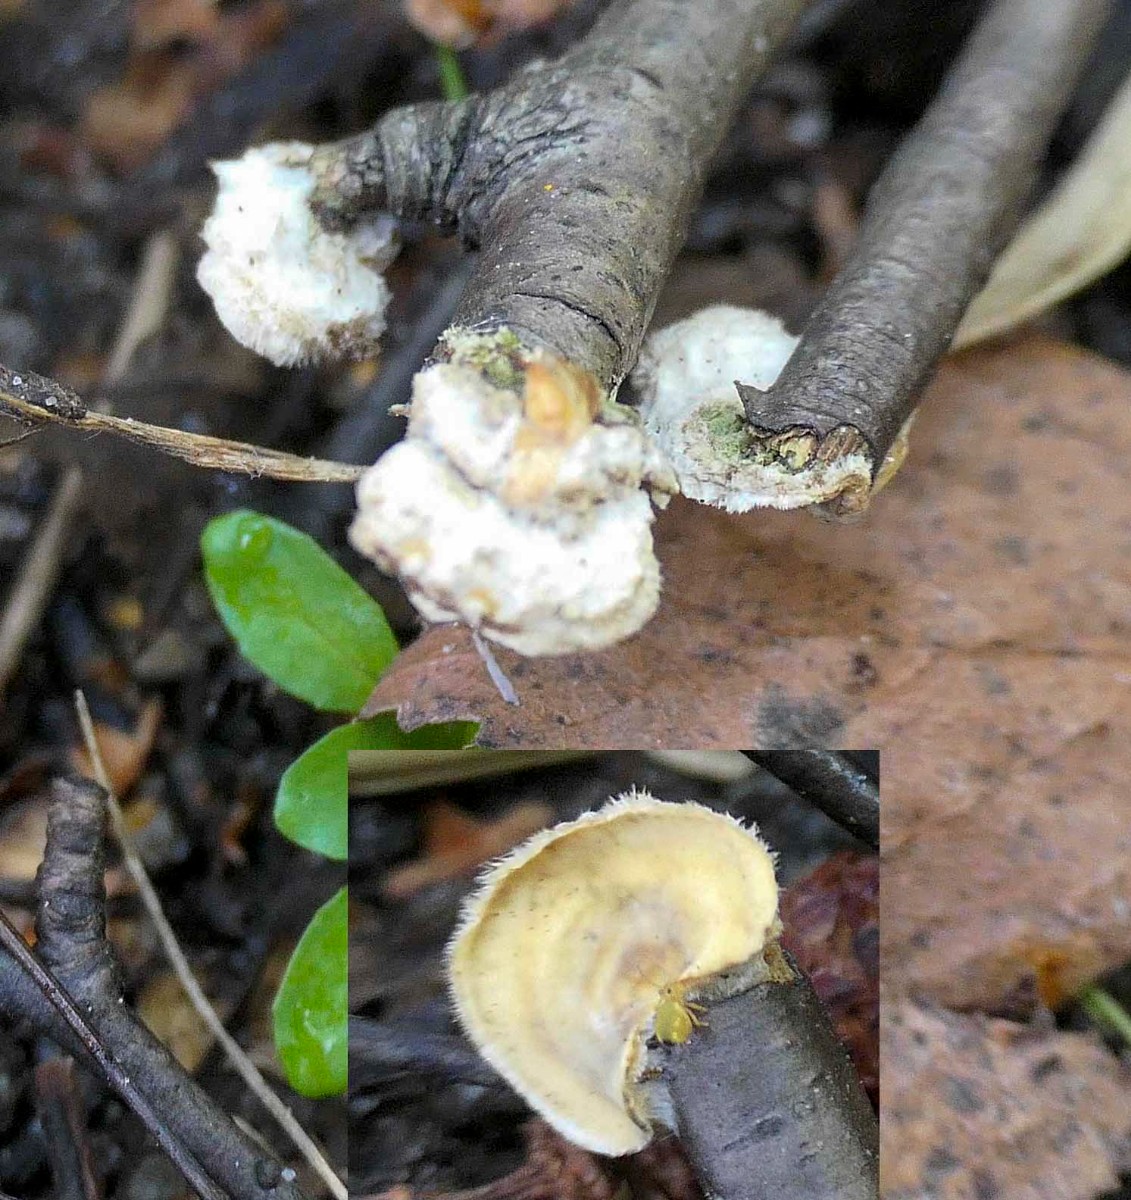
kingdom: Fungi
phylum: Basidiomycota
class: Agaricomycetes
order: Russulales
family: Stereaceae
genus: Stereum
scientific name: Stereum complicatum
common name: liden lædersvamp
